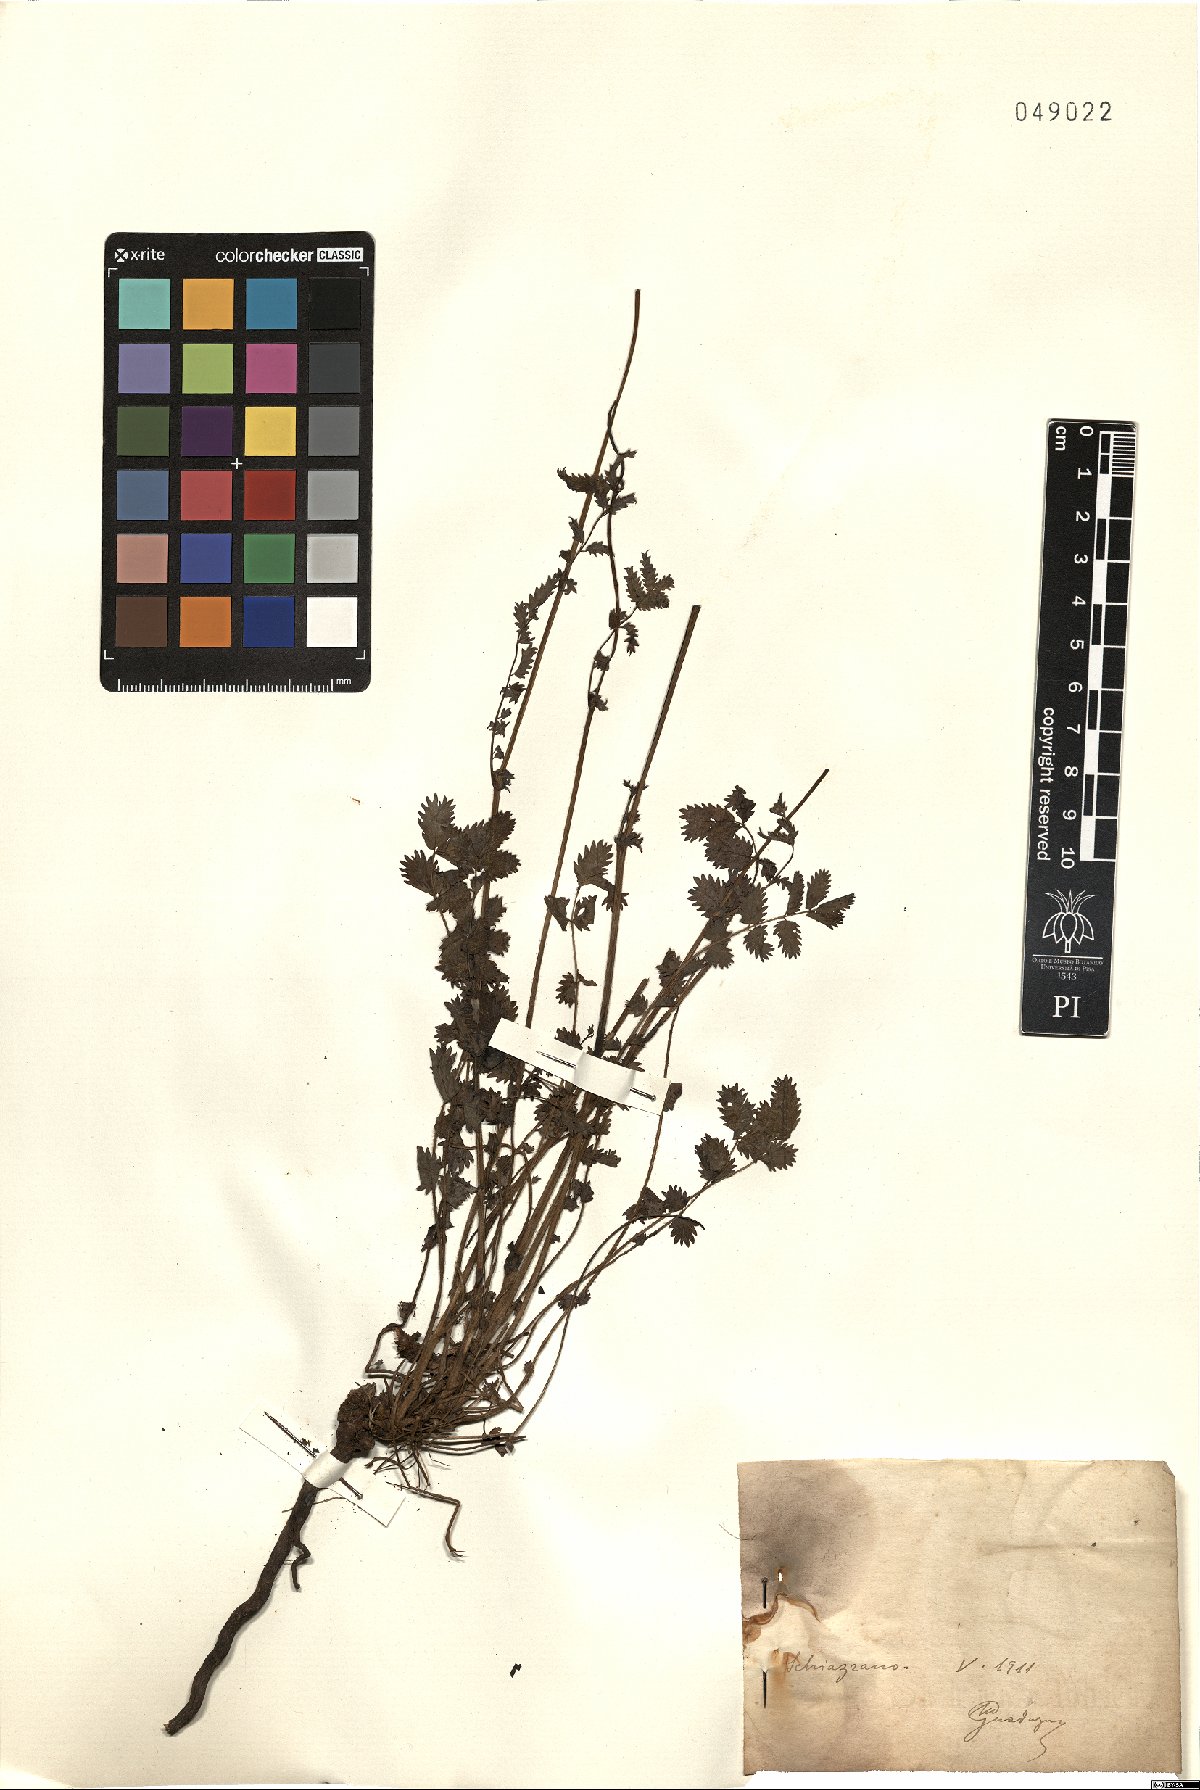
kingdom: Plantae
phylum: Tracheophyta
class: Magnoliopsida
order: Rosales
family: Rosaceae
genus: Poterium
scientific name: Poterium
